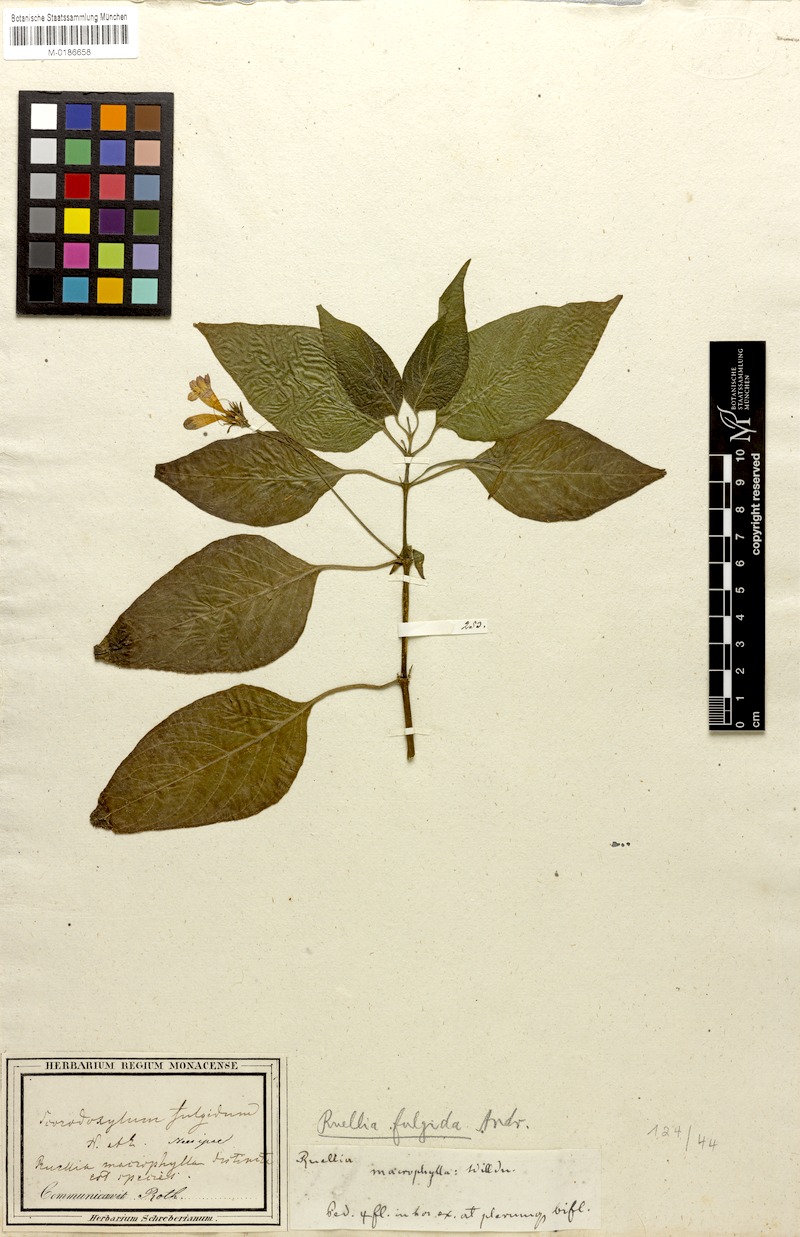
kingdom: Plantae
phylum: Tracheophyta
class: Magnoliopsida
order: Lamiales
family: Acanthaceae
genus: Ruellia
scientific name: Ruellia fulgida
